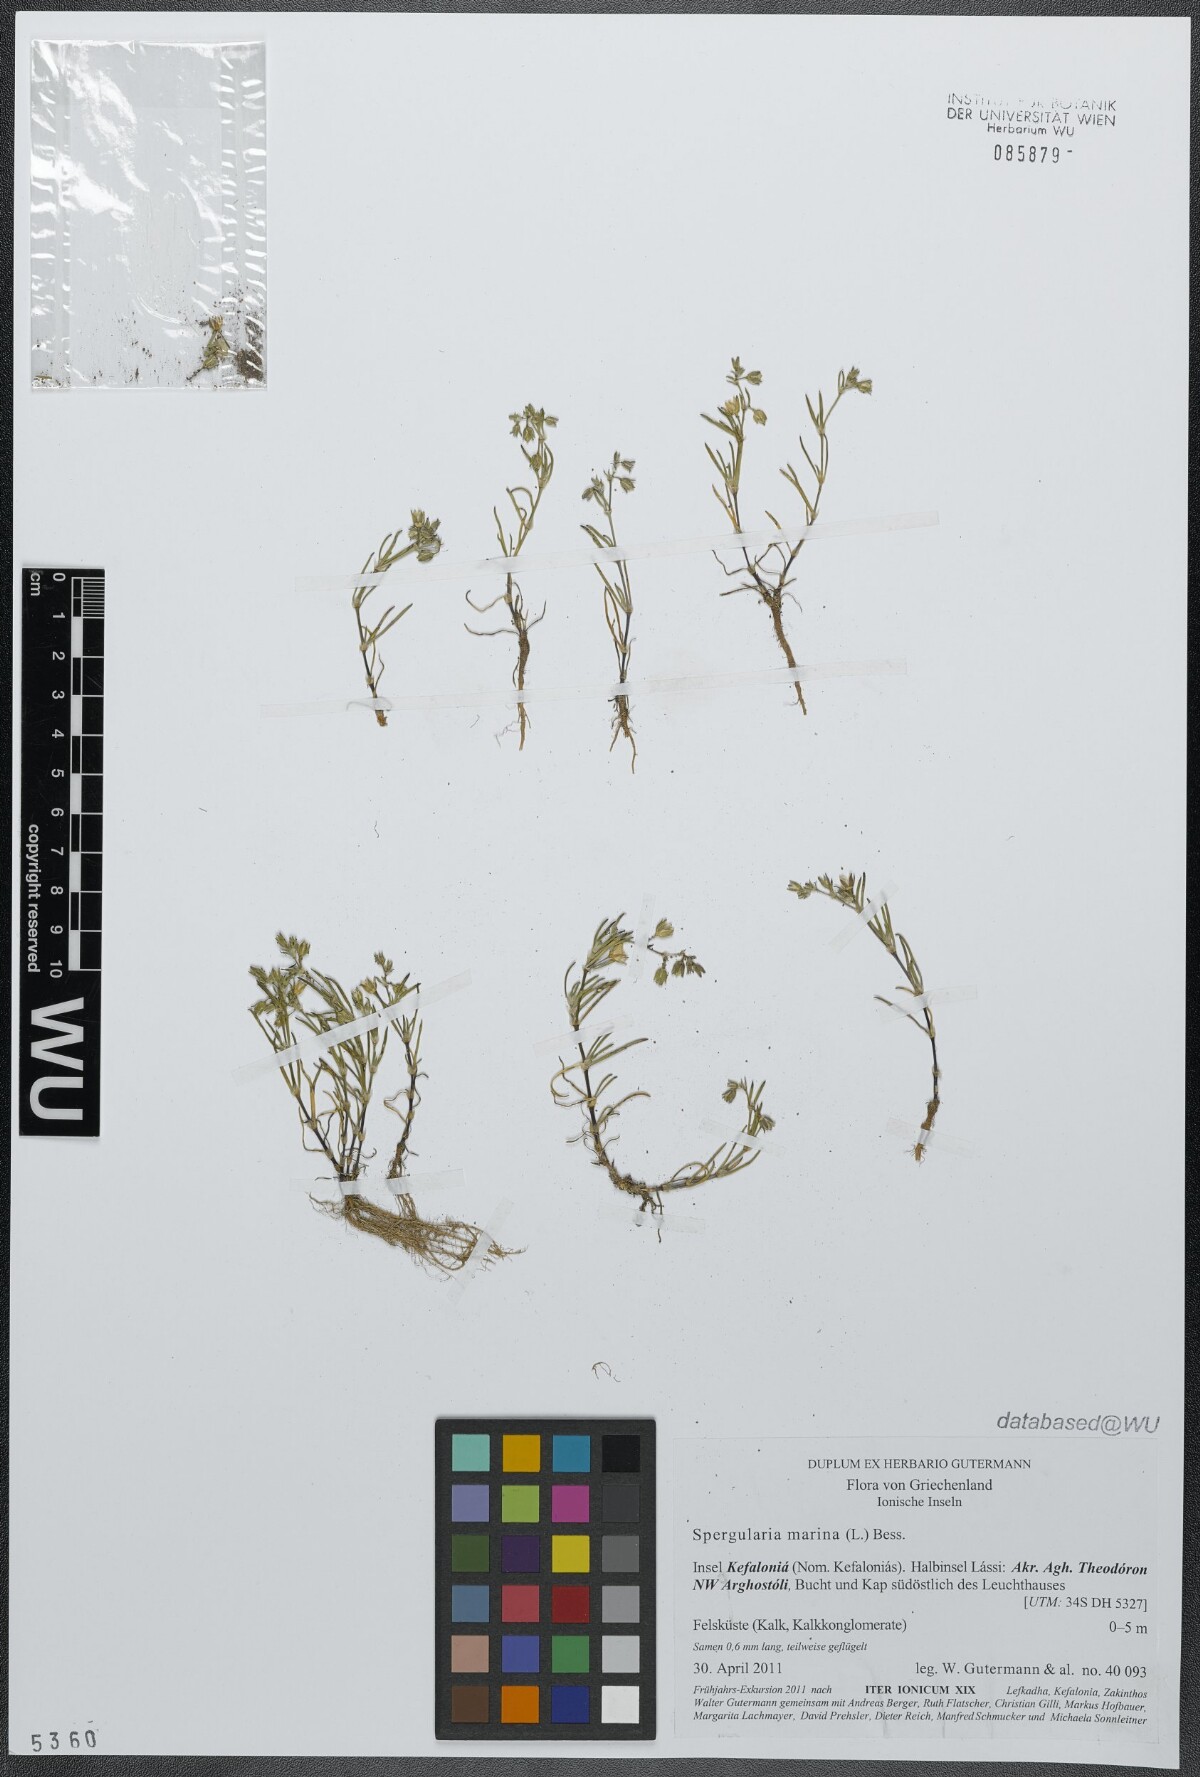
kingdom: Plantae
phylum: Tracheophyta
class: Magnoliopsida
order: Caryophyllales
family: Caryophyllaceae
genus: Spergularia
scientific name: Spergularia marina
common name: Lesser sea-spurrey
